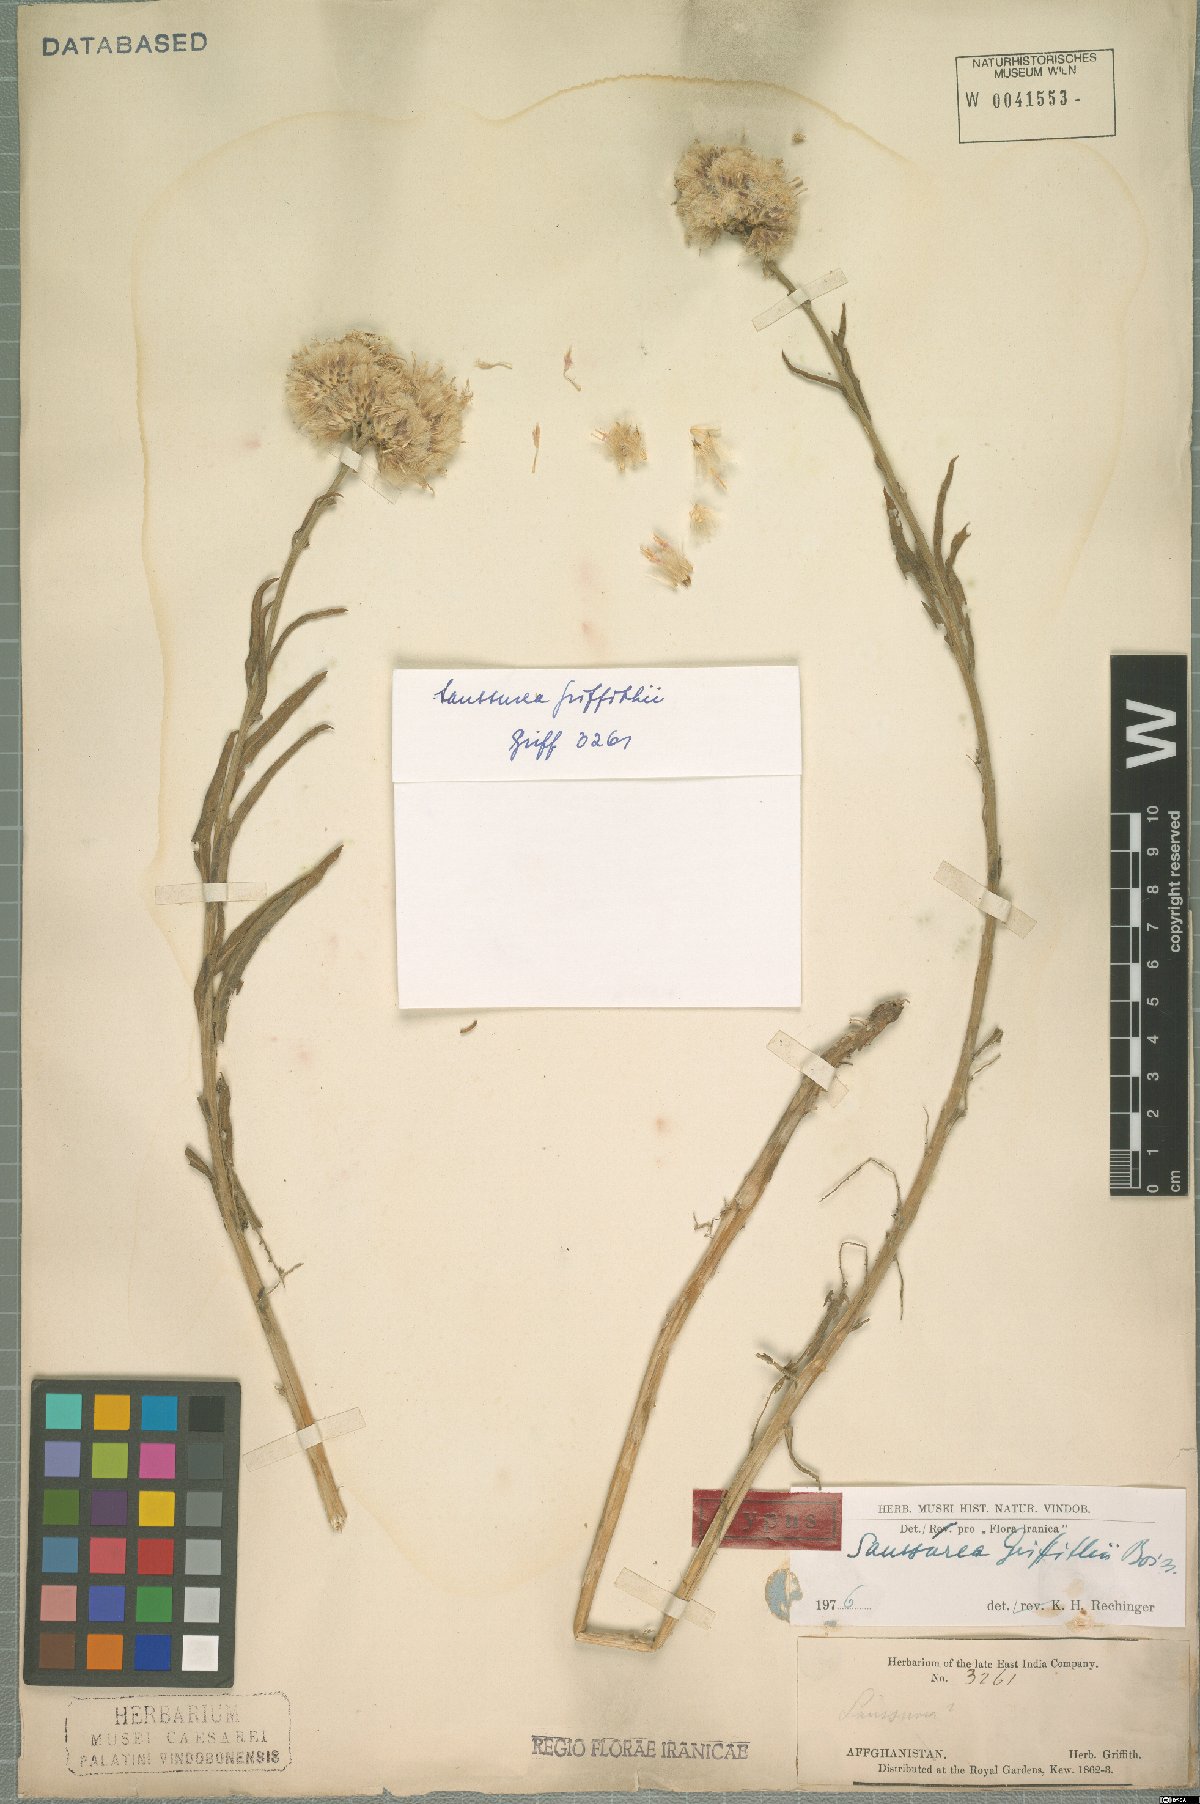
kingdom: Plantae
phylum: Tracheophyta
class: Magnoliopsida
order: Asterales
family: Asteraceae
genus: Saussurea
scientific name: Saussurea griffithii
